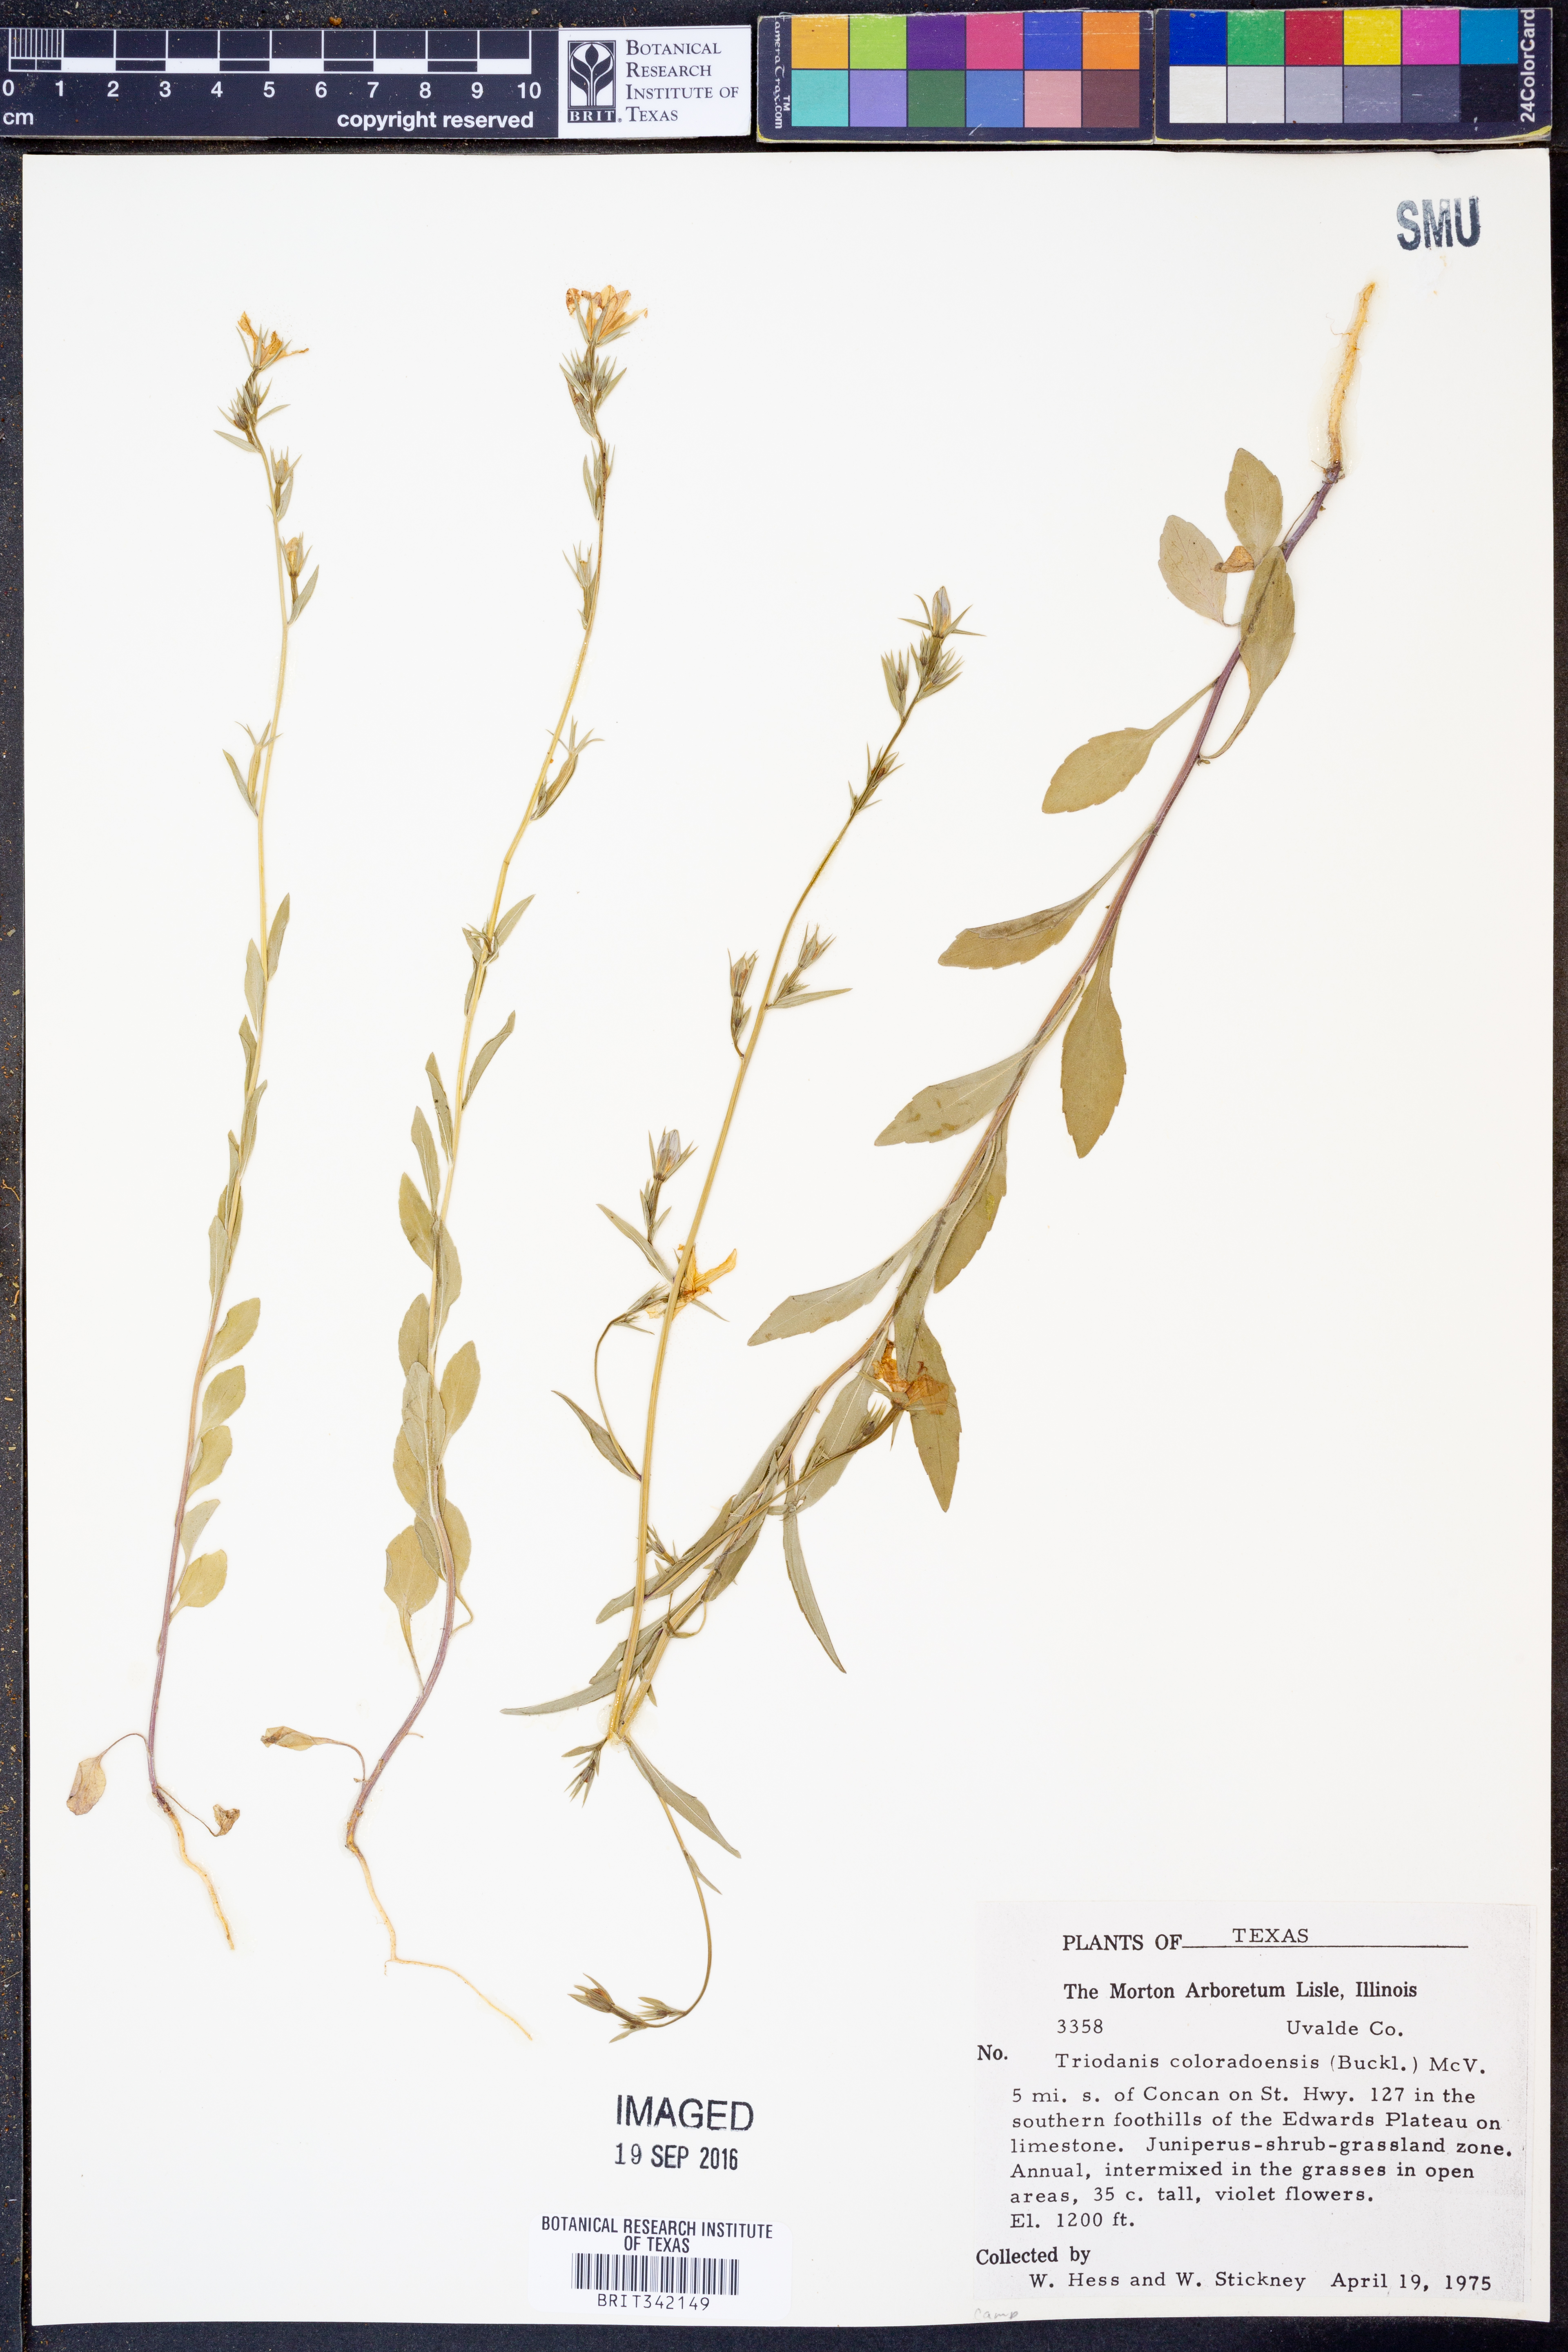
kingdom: Plantae
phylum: Tracheophyta
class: Magnoliopsida
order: Asterales
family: Campanulaceae
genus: Triodanis
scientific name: Triodanis coloradoensis
